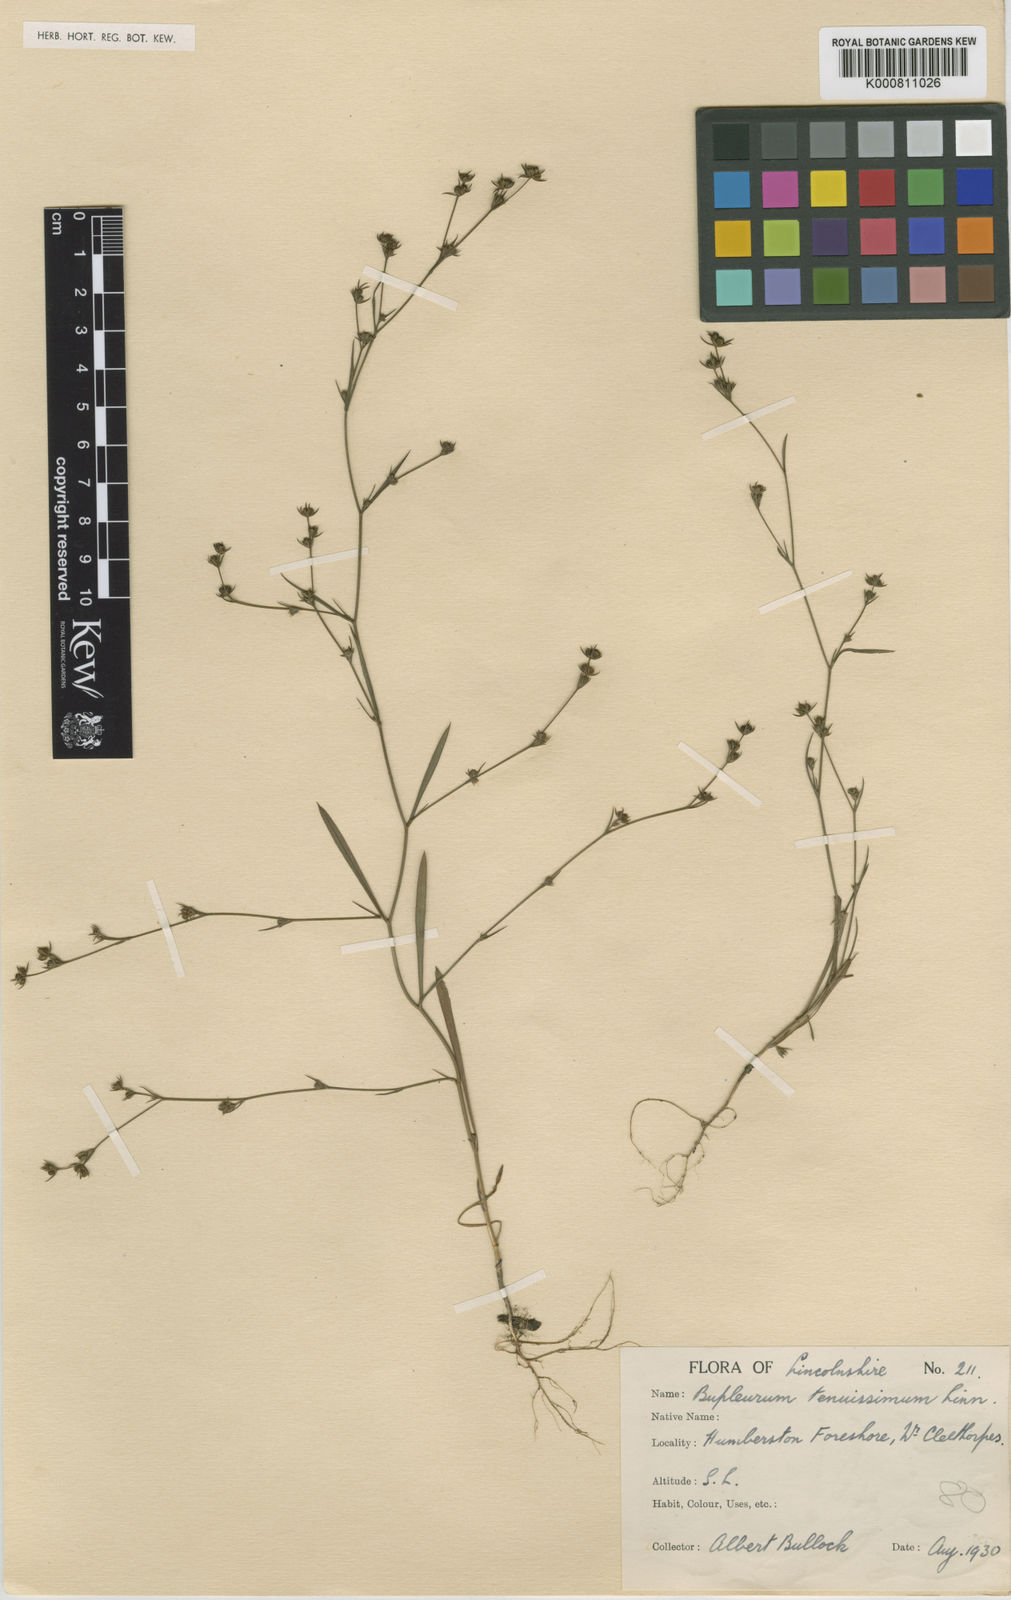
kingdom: Plantae
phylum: Tracheophyta
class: Magnoliopsida
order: Apiales
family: Apiaceae
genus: Bupleurum
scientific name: Bupleurum tenuissimum
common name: Slender hare's-ear
